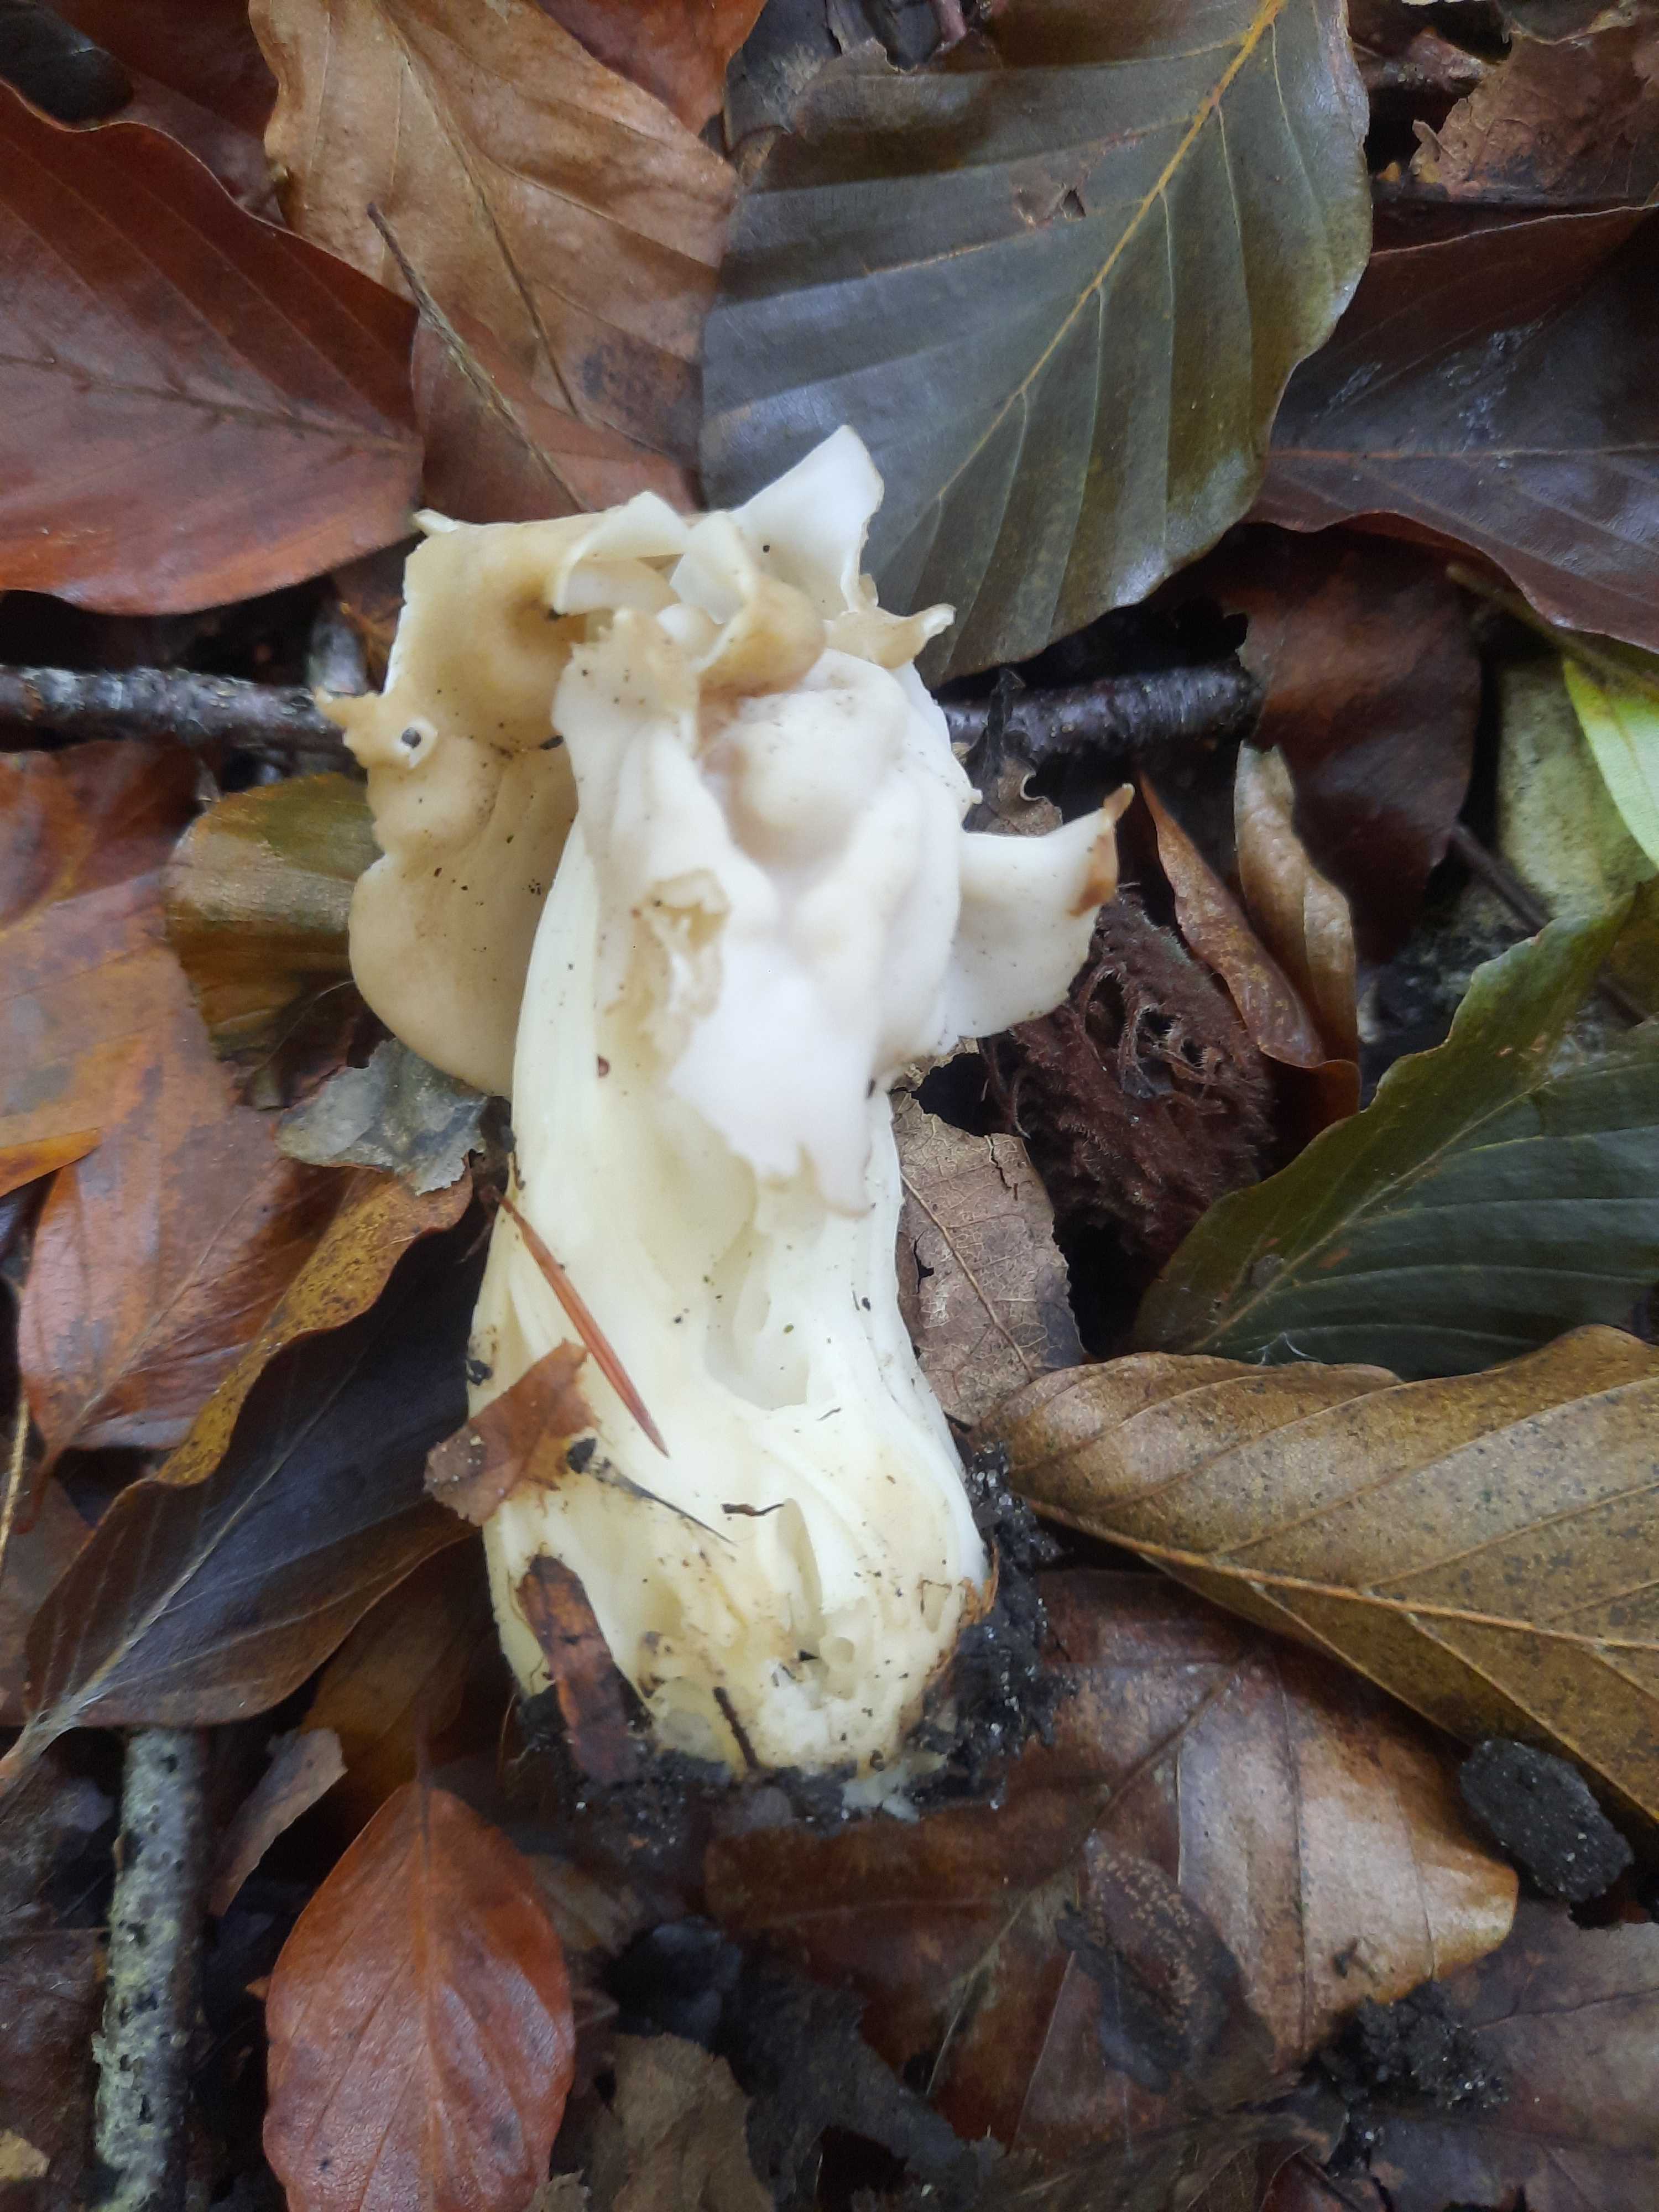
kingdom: Fungi
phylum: Ascomycota
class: Pezizomycetes
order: Pezizales
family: Helvellaceae
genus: Helvella
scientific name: Helvella crispa
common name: kruset foldhat
